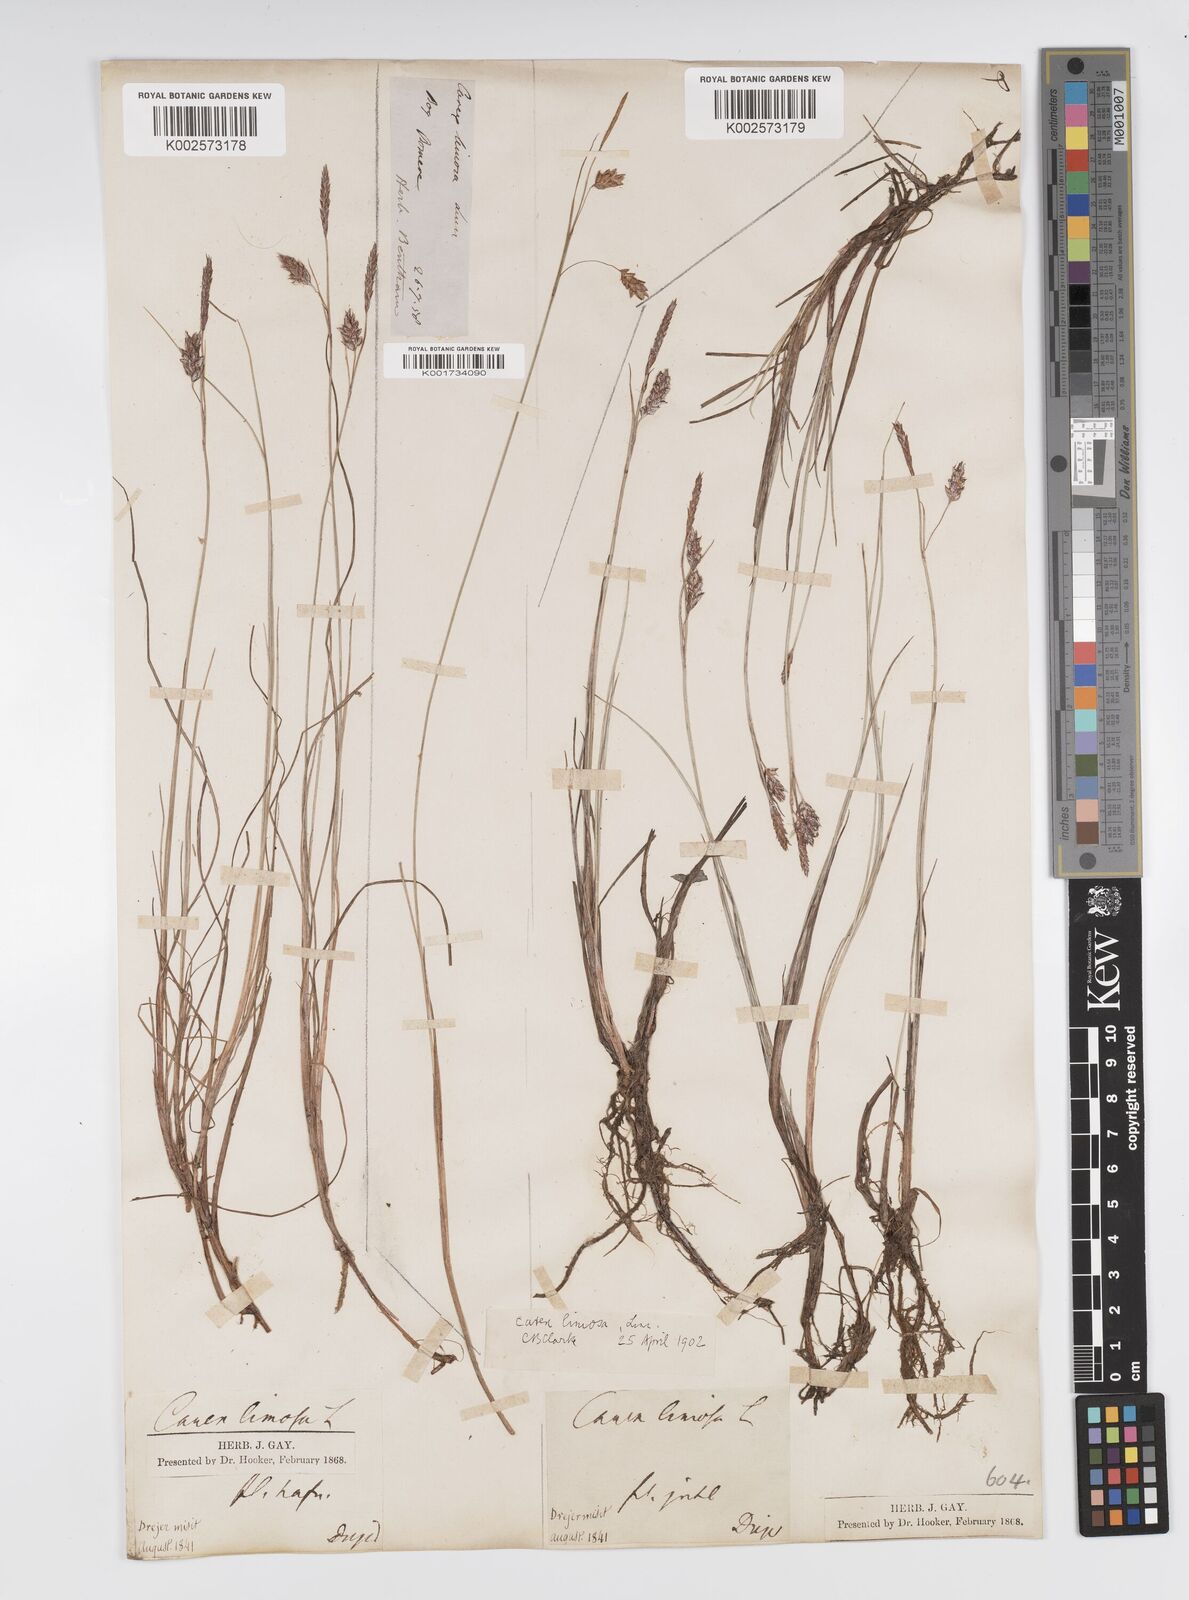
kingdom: Plantae
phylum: Tracheophyta
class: Liliopsida
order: Poales
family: Cyperaceae
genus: Carex
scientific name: Carex limosa
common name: Bog sedge
